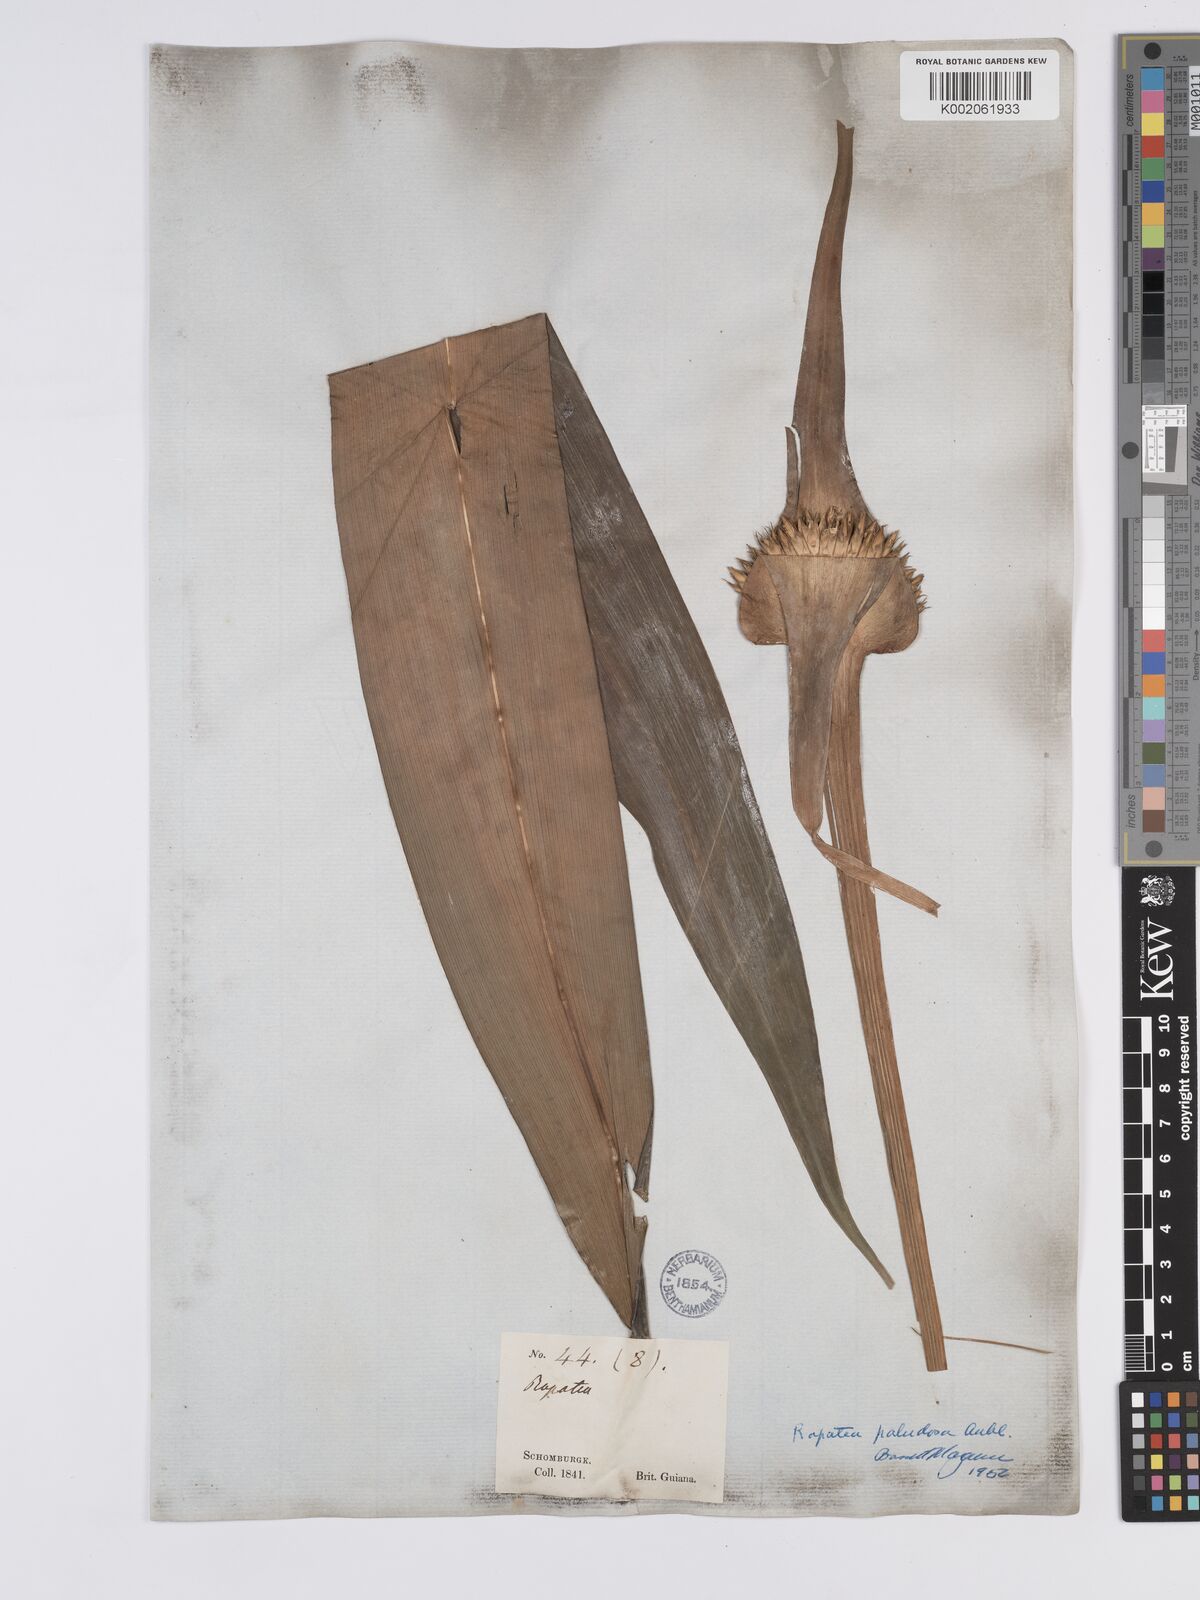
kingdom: Plantae
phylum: Tracheophyta
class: Liliopsida
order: Poales
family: Rapateaceae
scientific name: Rapateaceae
